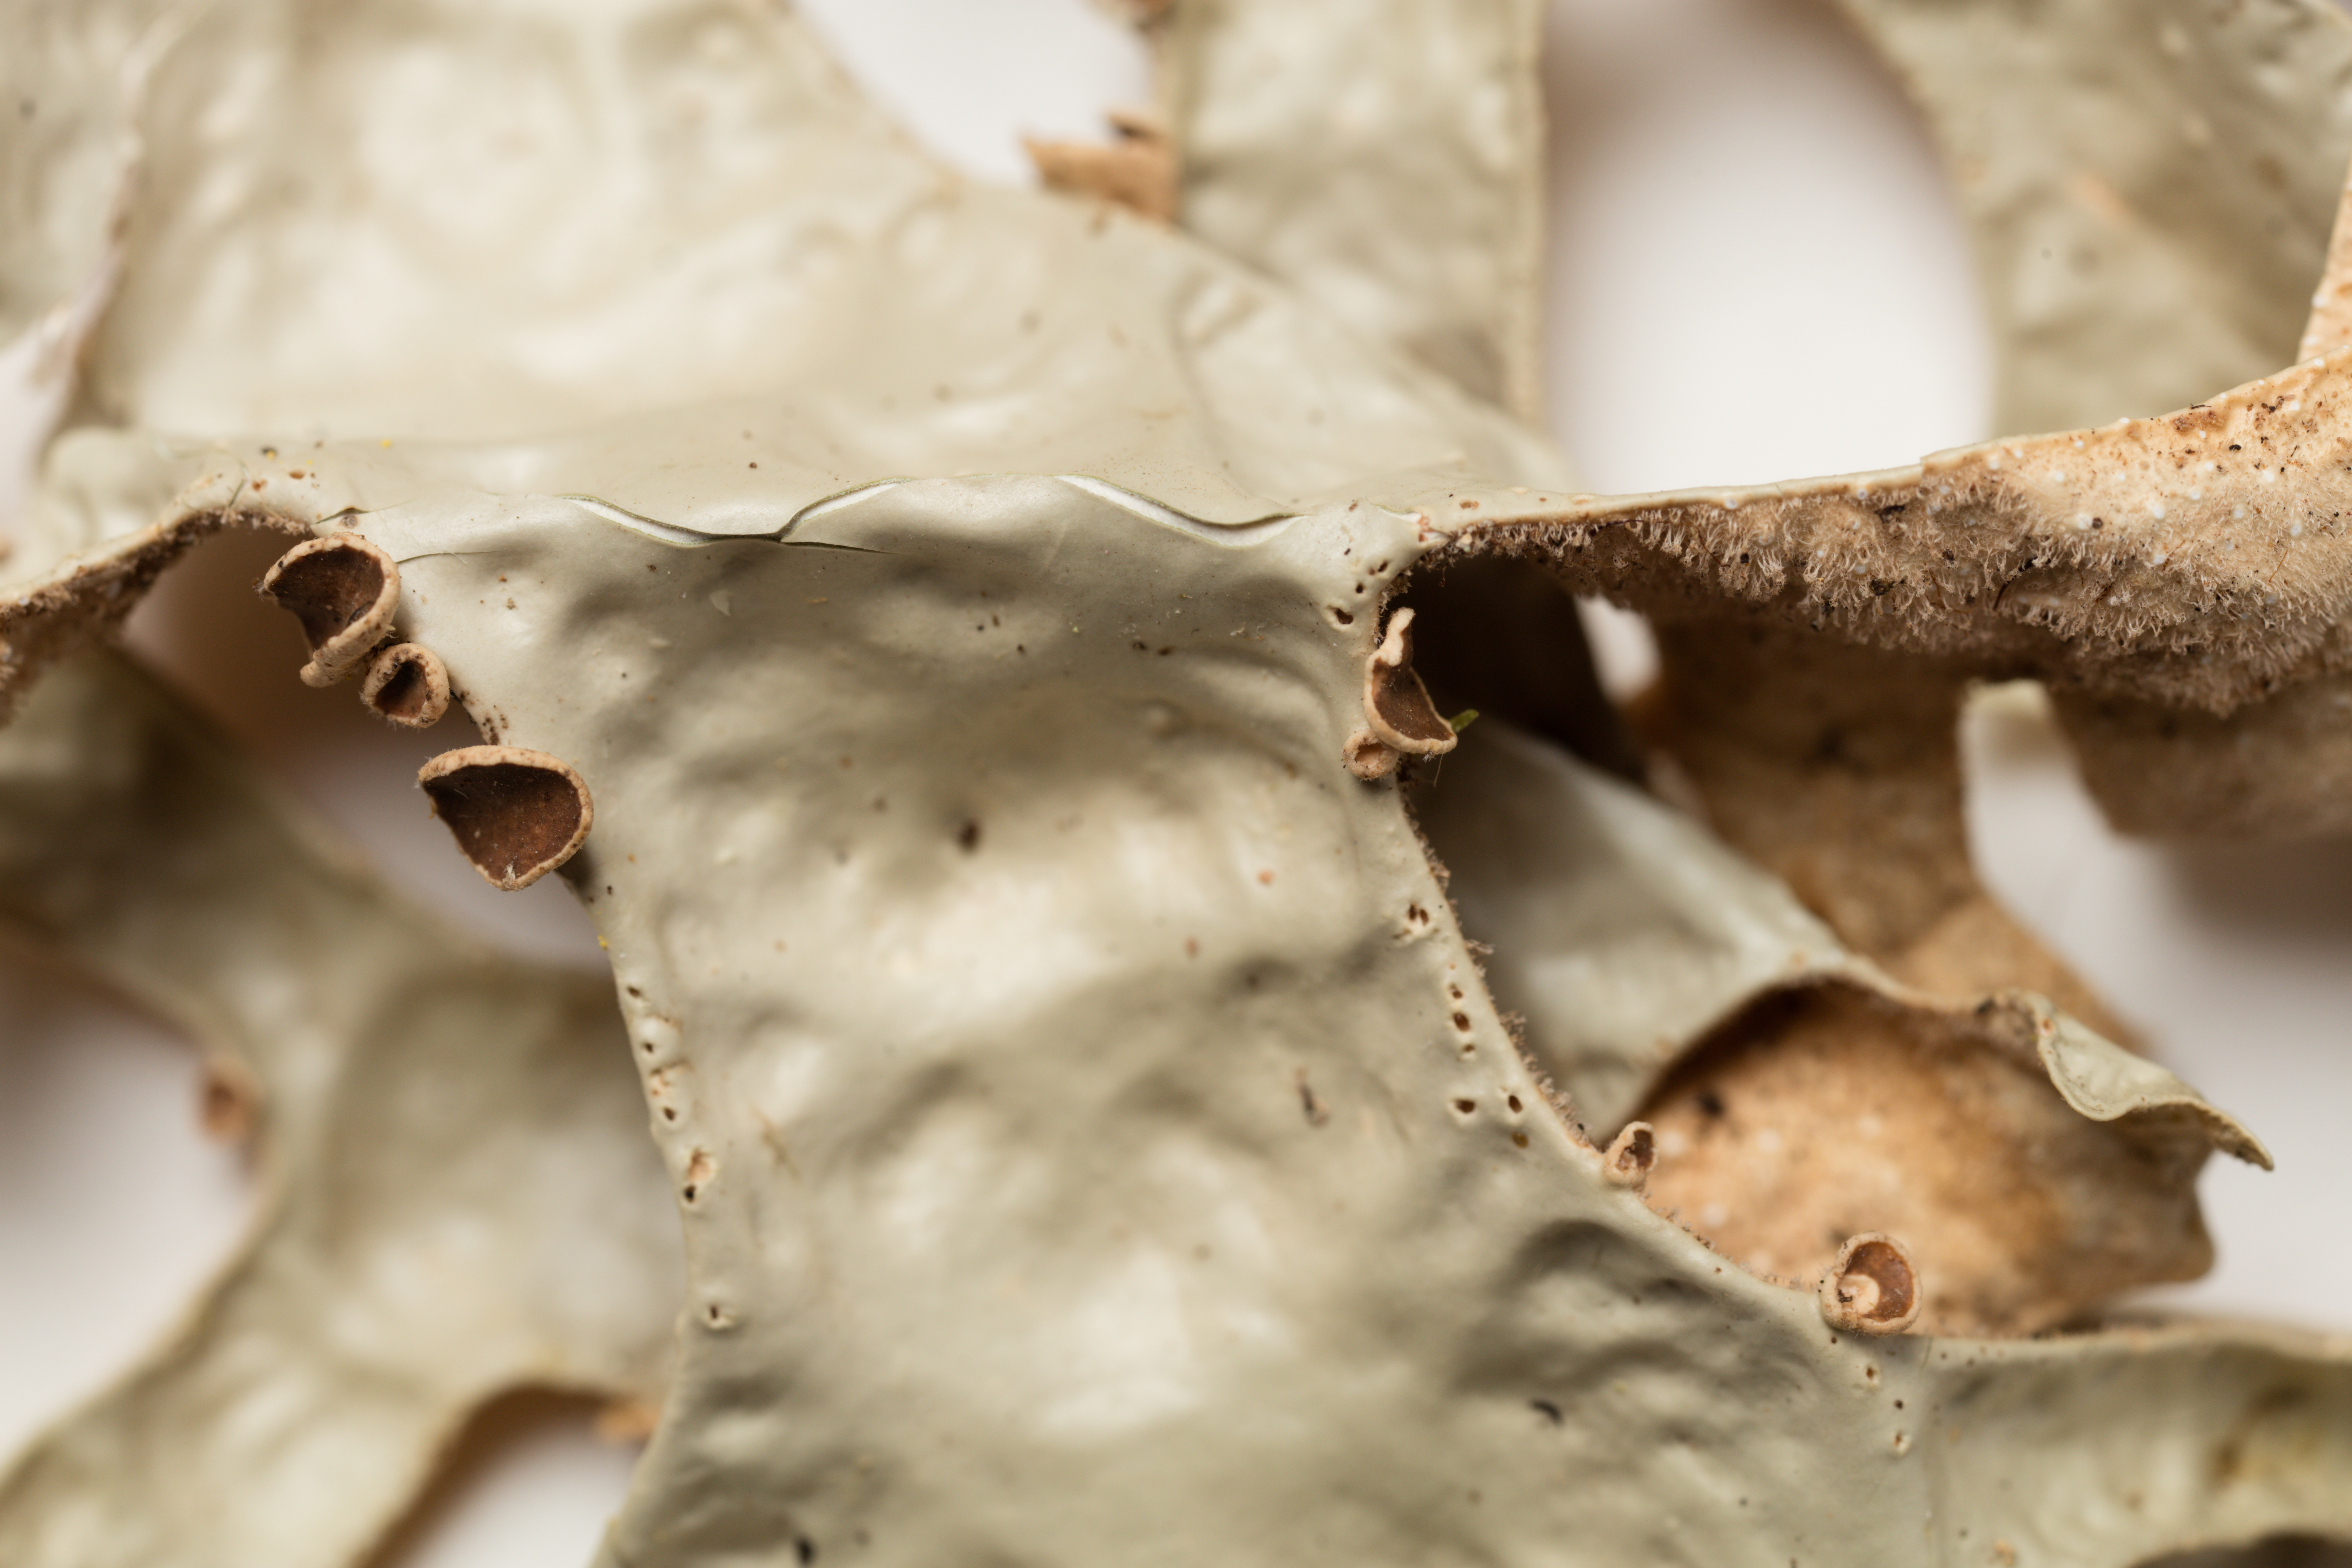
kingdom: Fungi
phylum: Ascomycota
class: Lecanoromycetes
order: Peltigerales
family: Lobariaceae
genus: Pseudocyphellaria
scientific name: Pseudocyphellaria rufovirescens
